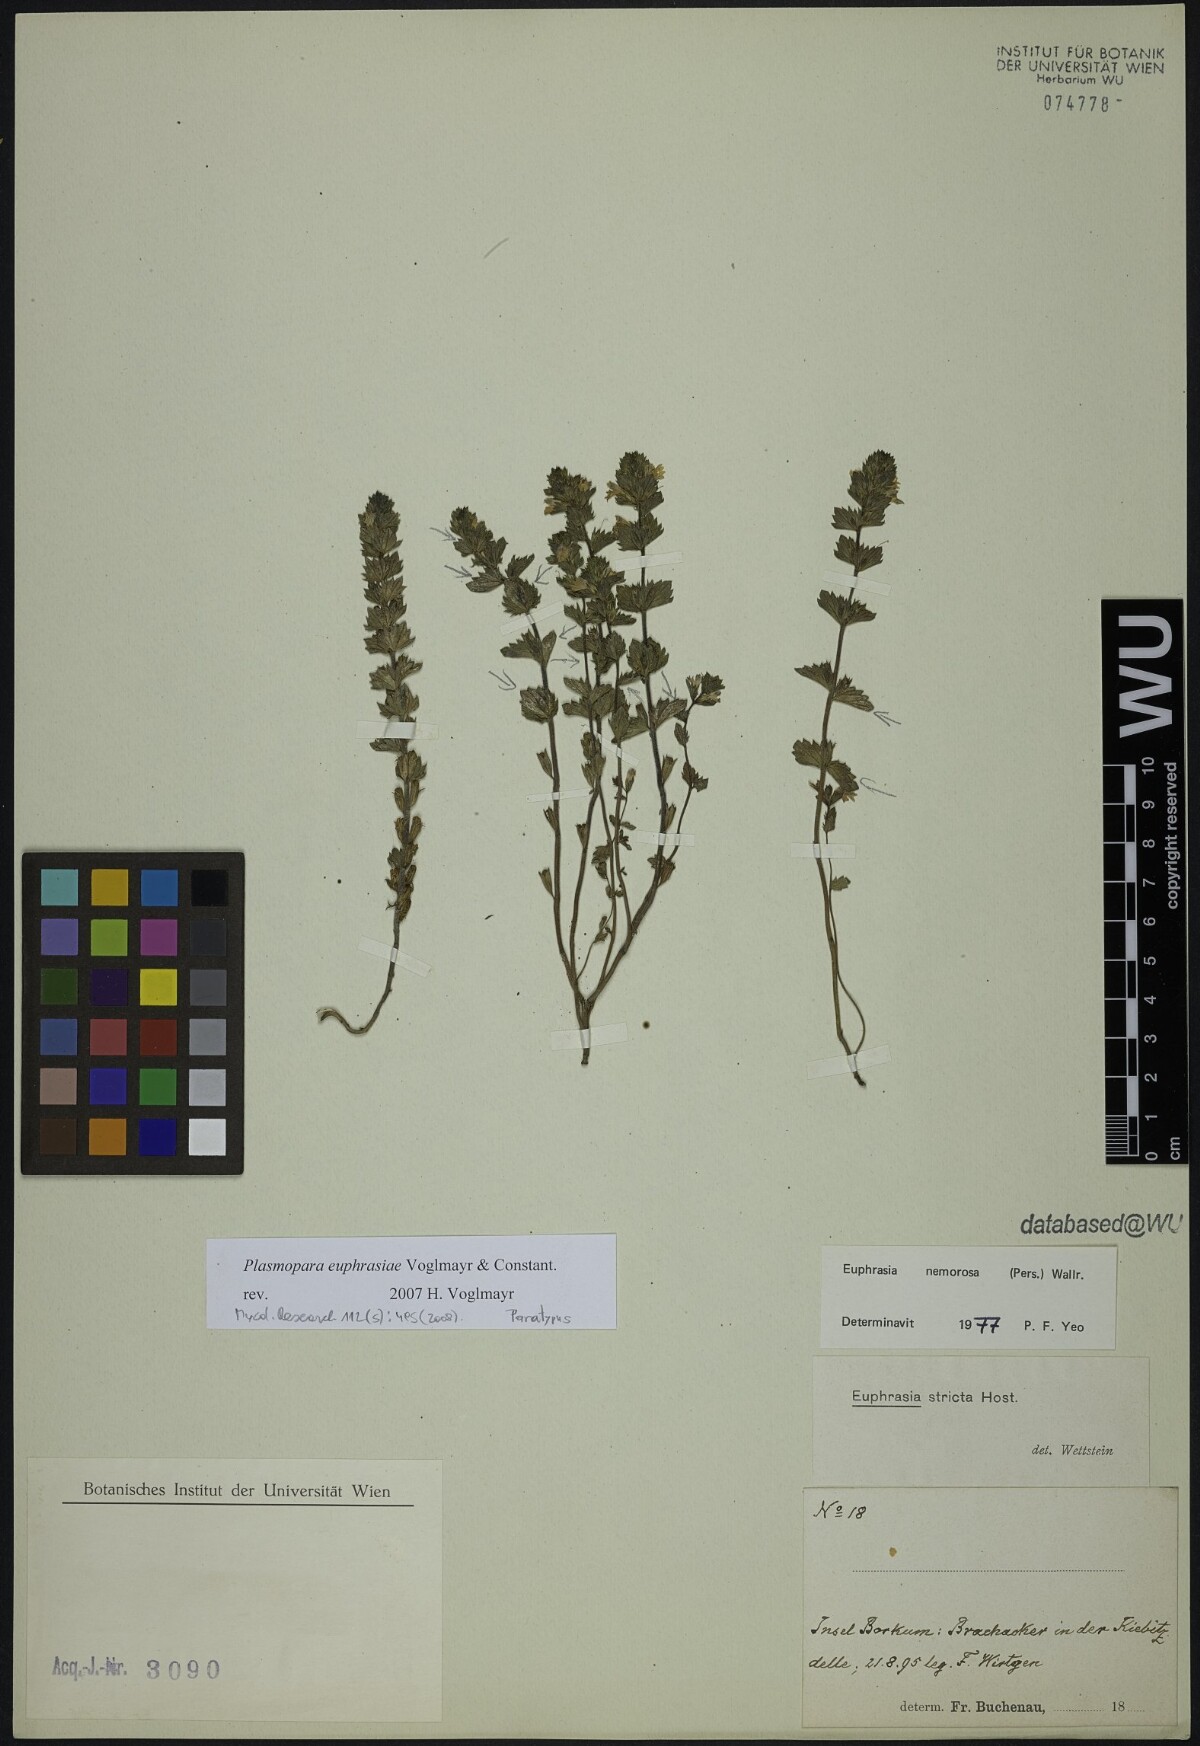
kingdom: Plantae
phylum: Tracheophyta
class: Magnoliopsida
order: Lamiales
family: Orobanchaceae
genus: Euphrasia
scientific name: Euphrasia nemorosa
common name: Common eyebright
